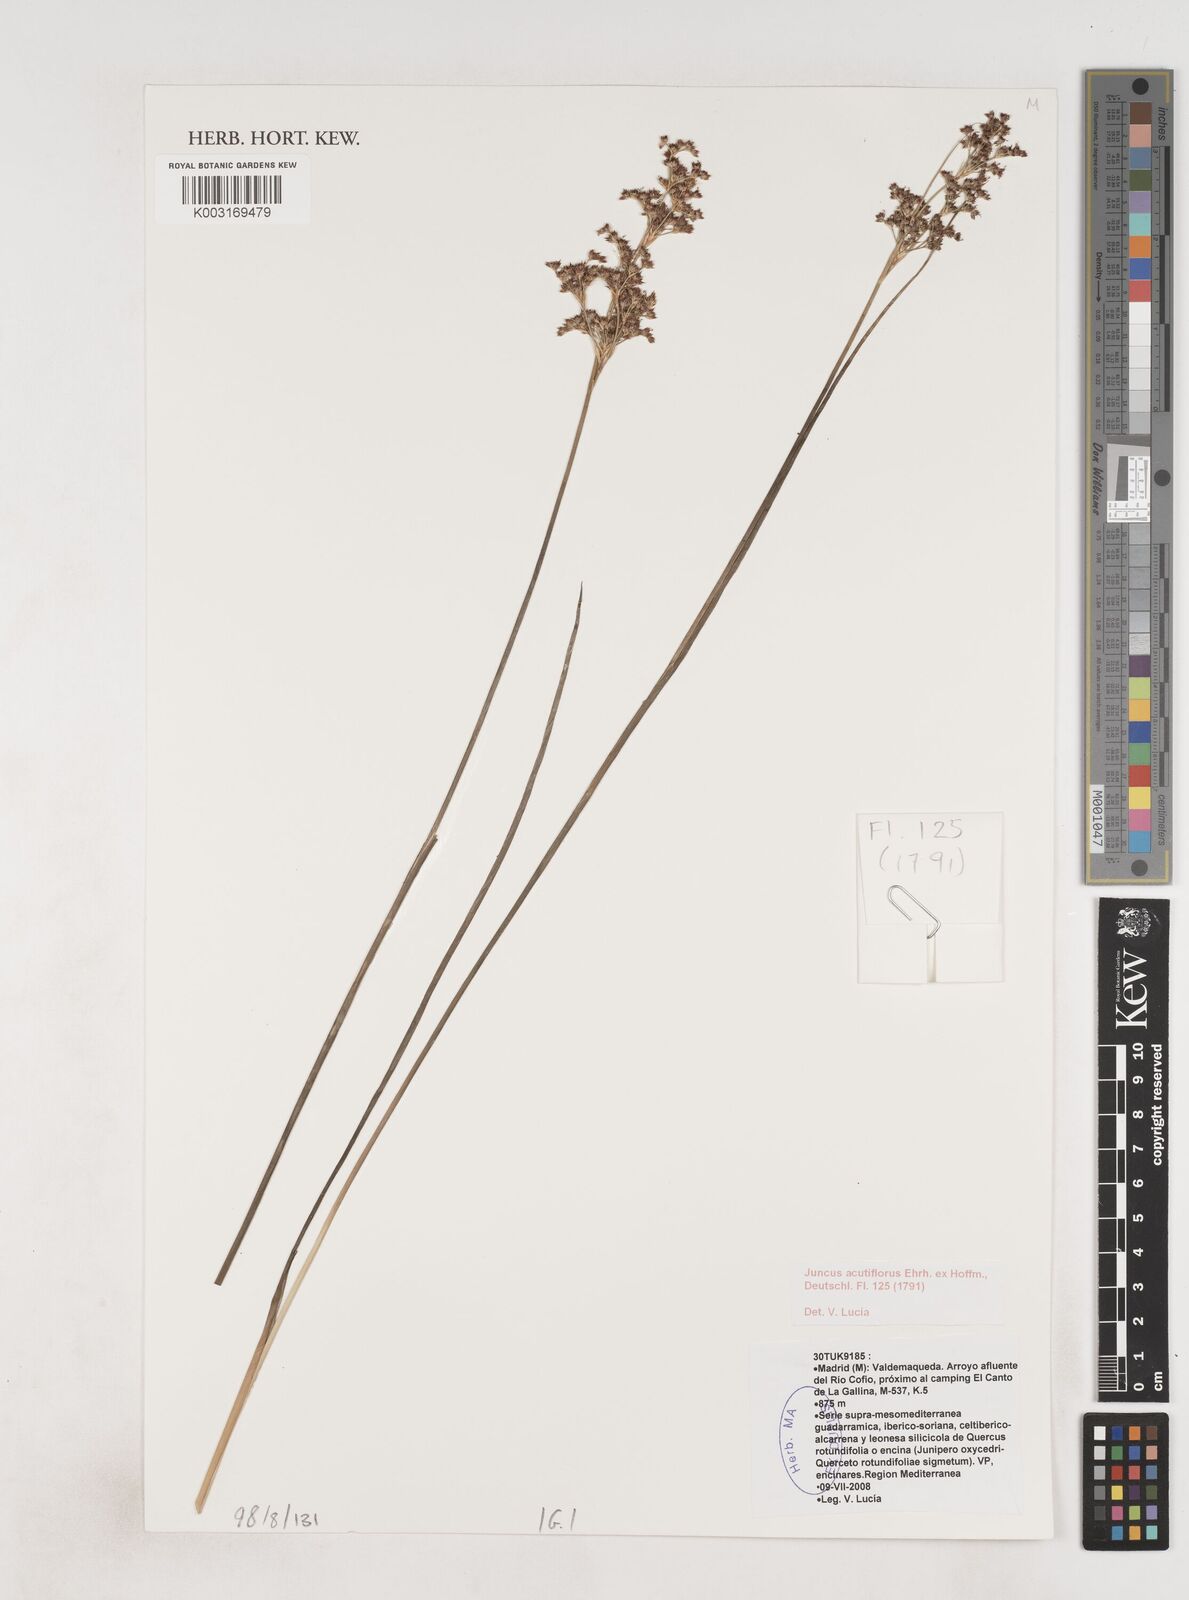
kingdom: Plantae
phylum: Tracheophyta
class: Liliopsida
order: Poales
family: Juncaceae
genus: Juncus
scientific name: Juncus acutiflorus
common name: Sharp-flowered rush
